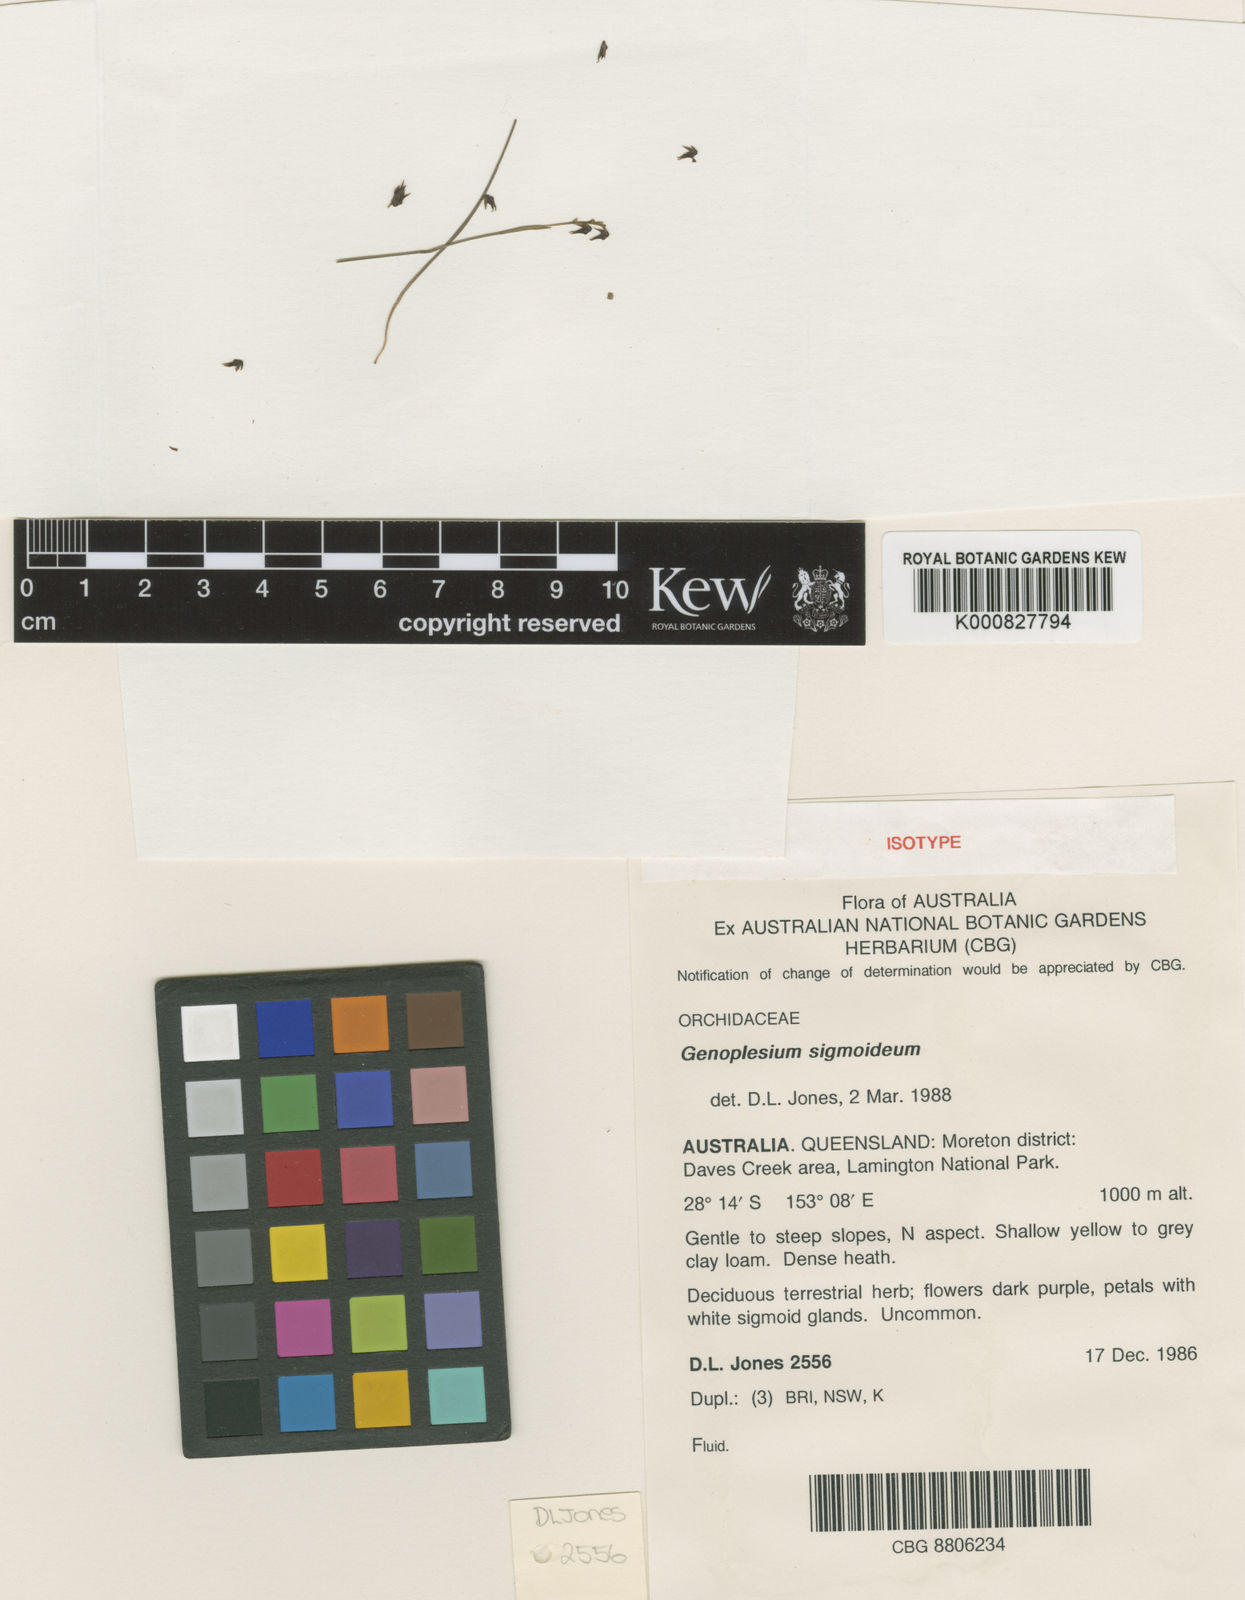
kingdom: Plantae
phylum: Tracheophyta
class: Liliopsida
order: Asparagales
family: Orchidaceae
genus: Prasophyllum
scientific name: Prasophyllum
